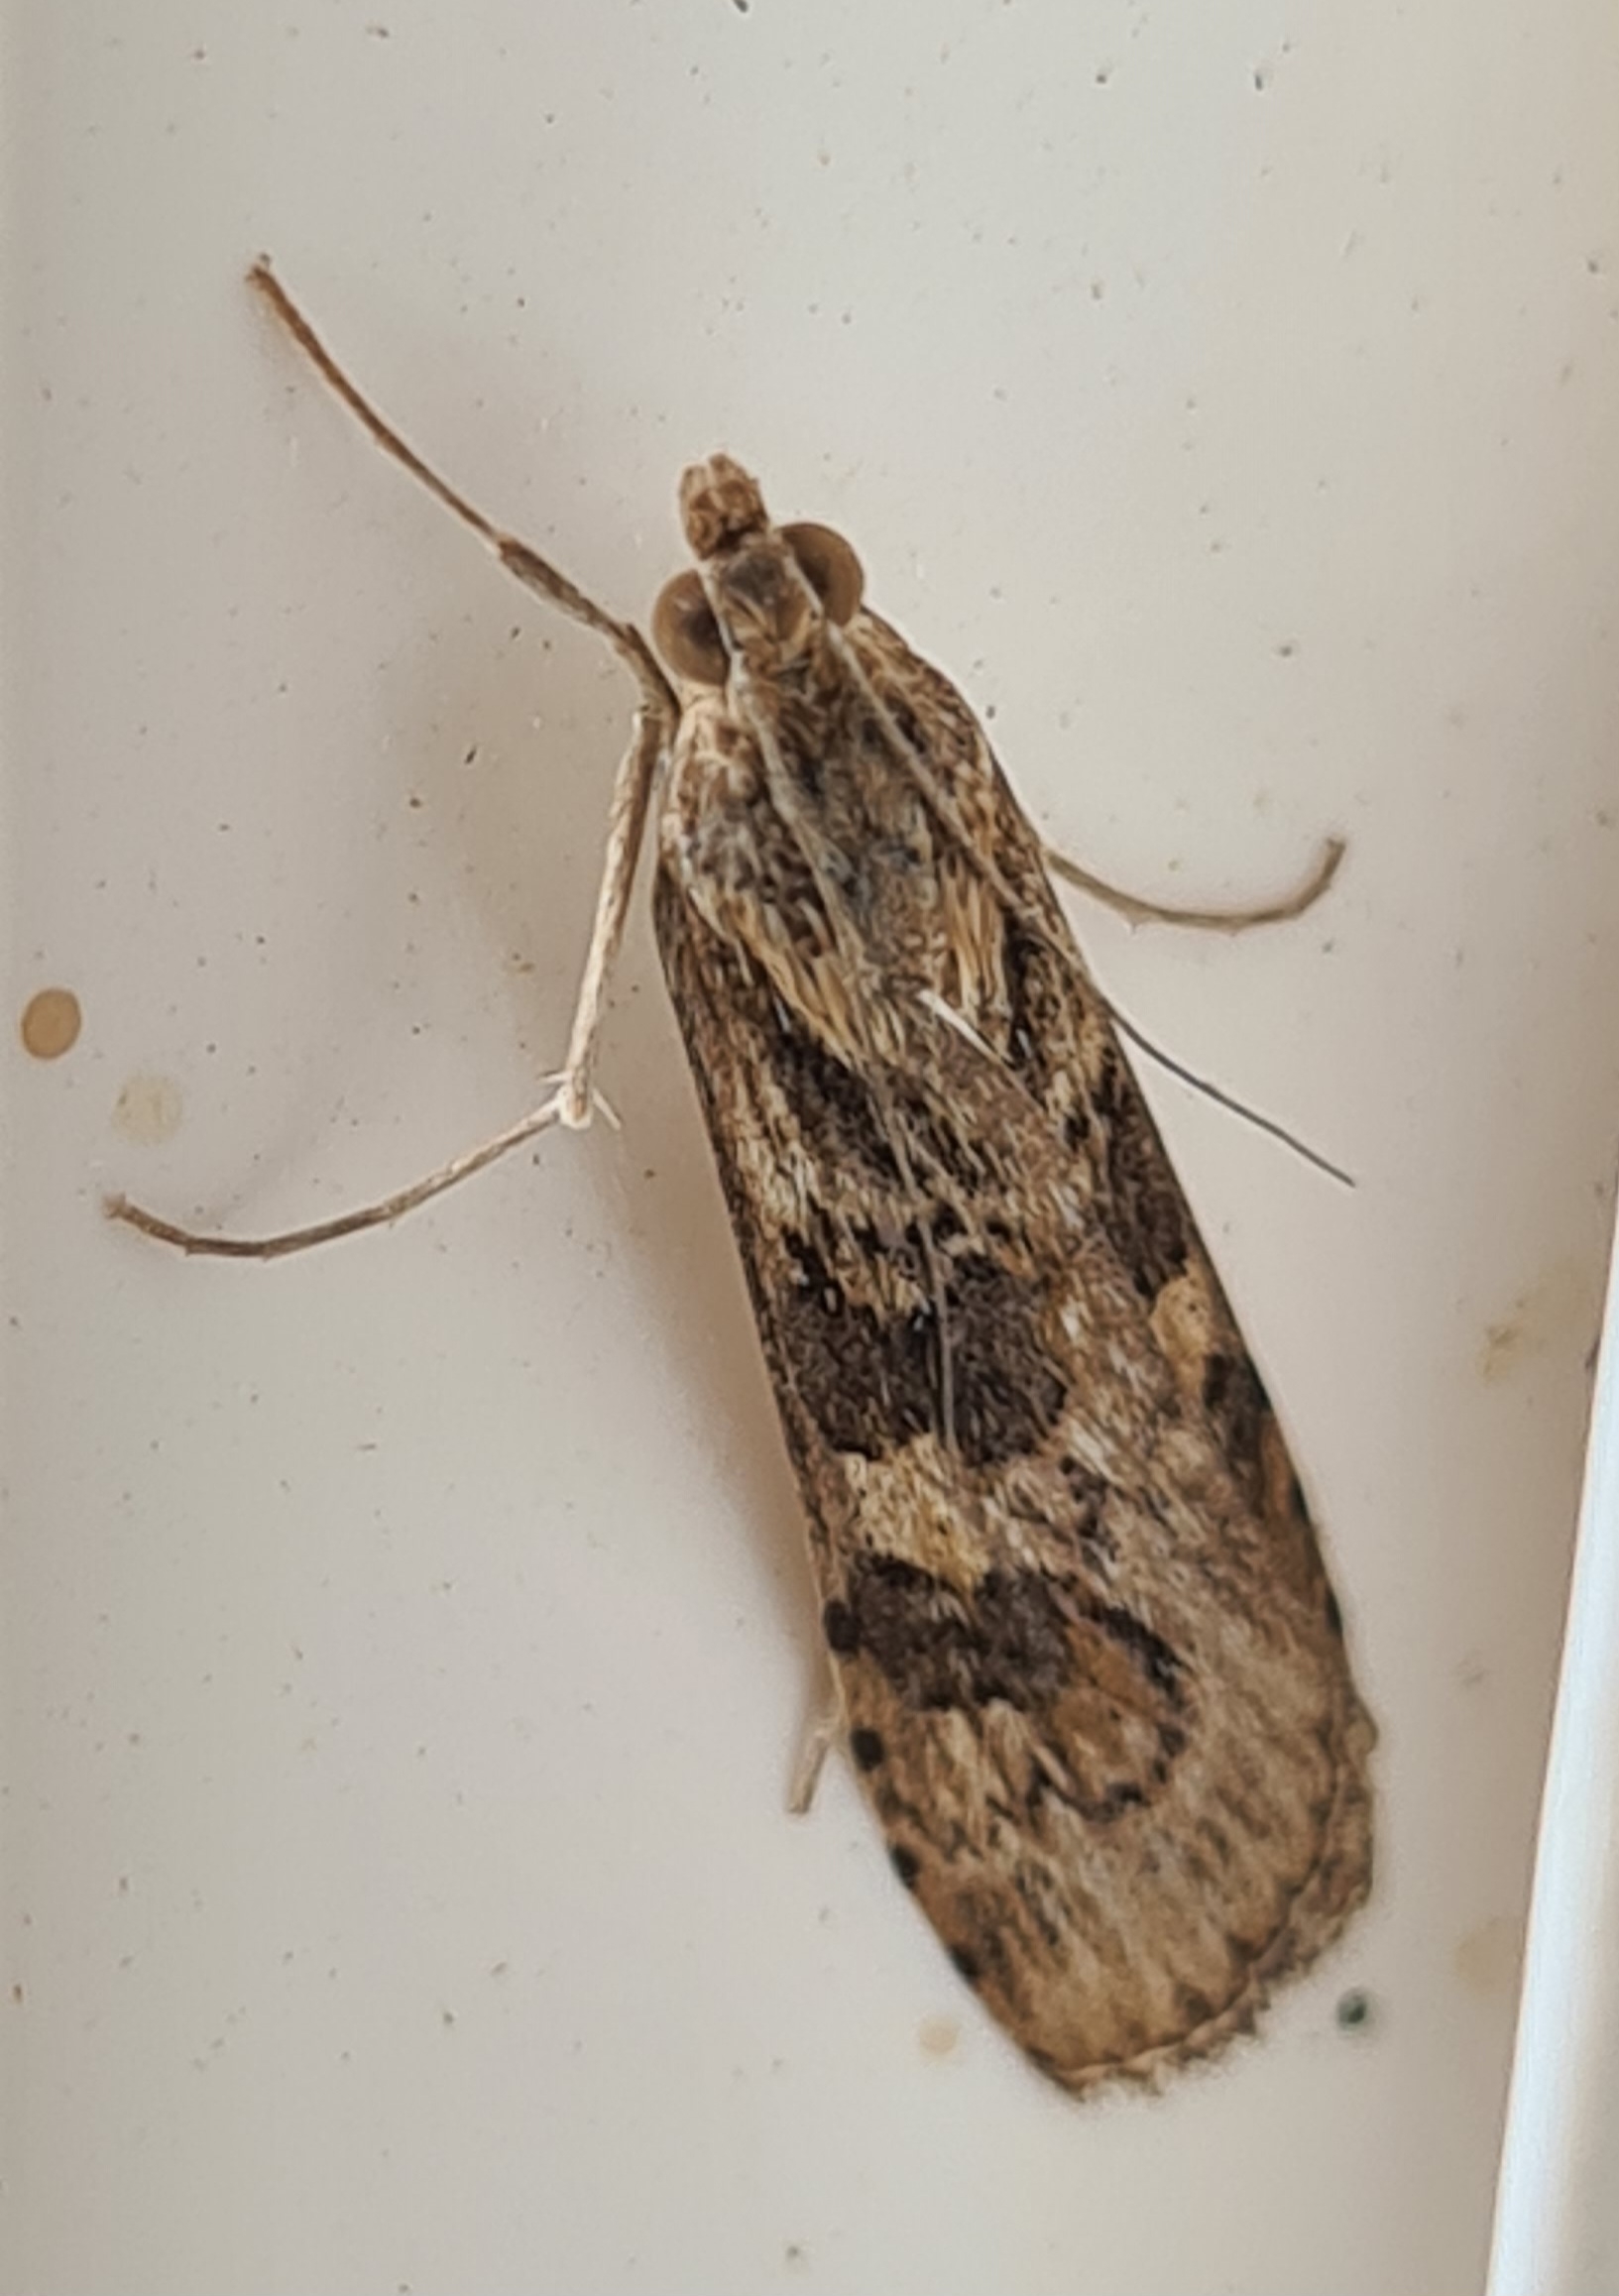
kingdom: Animalia
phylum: Arthropoda
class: Insecta
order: Lepidoptera
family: Crambidae
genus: Nomophila
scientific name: Nomophila noctuella
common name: Vandrehalvmøl
